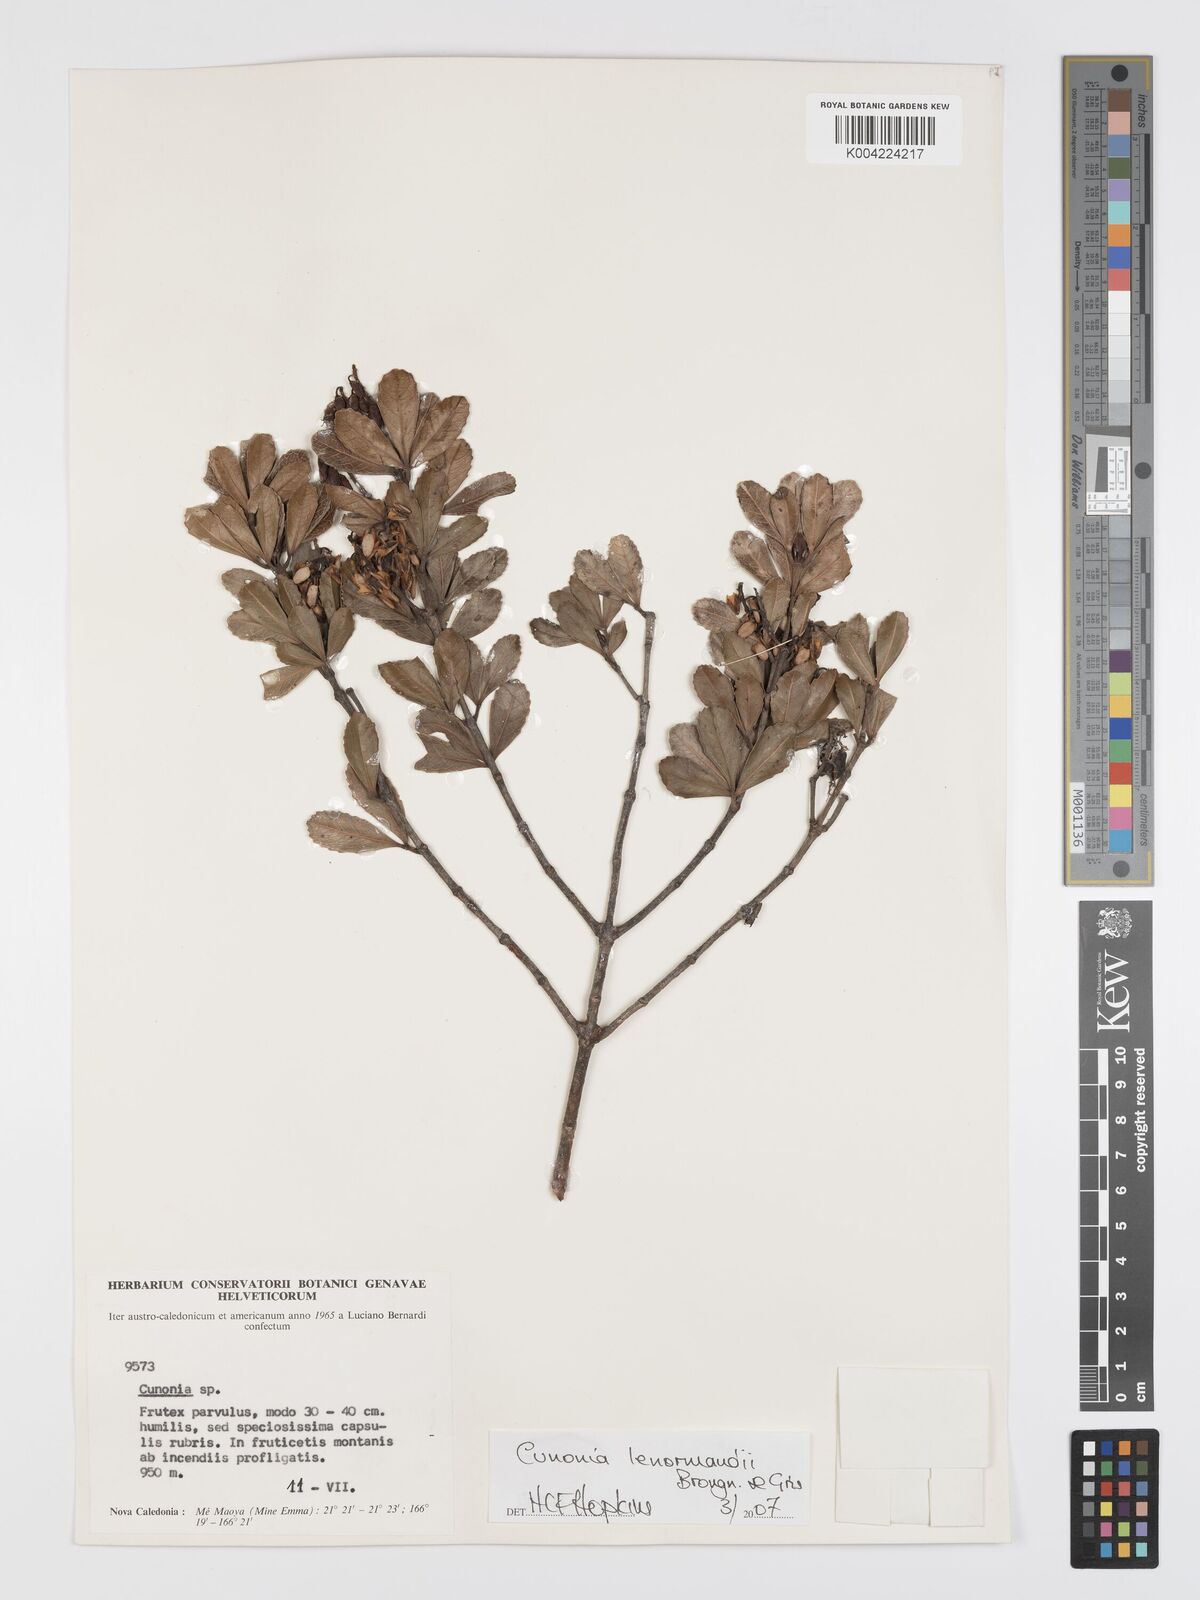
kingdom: Plantae
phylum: Tracheophyta
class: Magnoliopsida
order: Oxalidales
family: Cunoniaceae
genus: Cunonia
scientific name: Cunonia lenormandii
